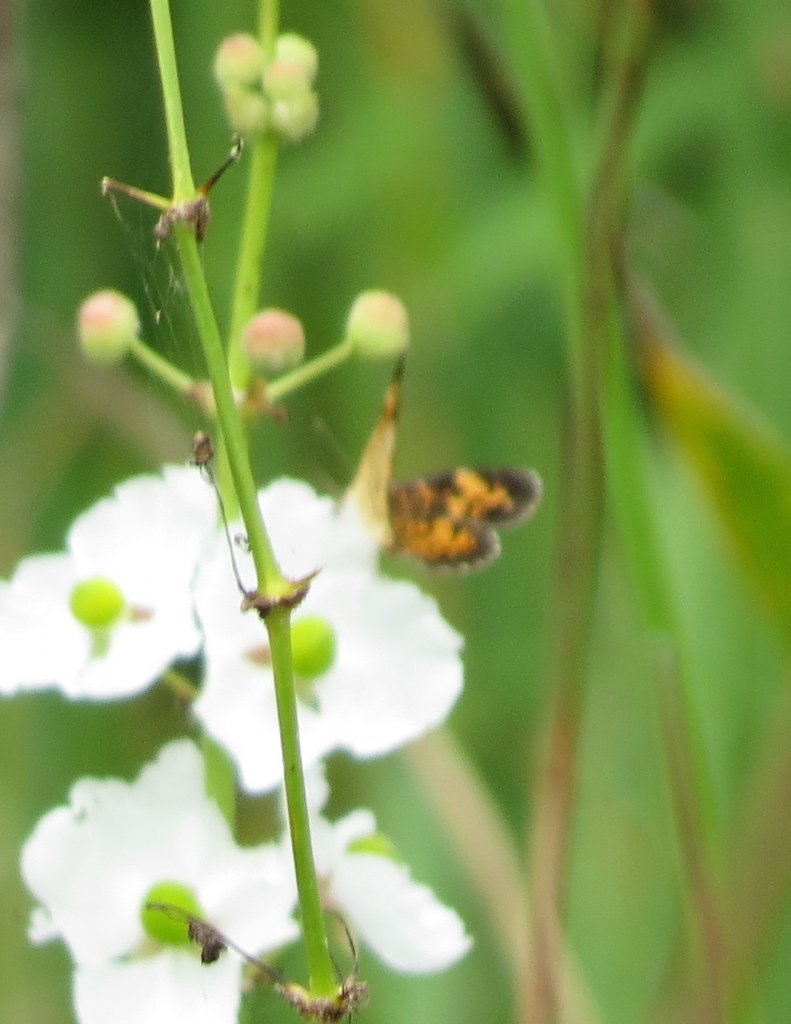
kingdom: Animalia
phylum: Arthropoda
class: Insecta
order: Lepidoptera
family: Nymphalidae
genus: Phyciodes
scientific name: Phyciodes tharos
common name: Pearl Crescent
